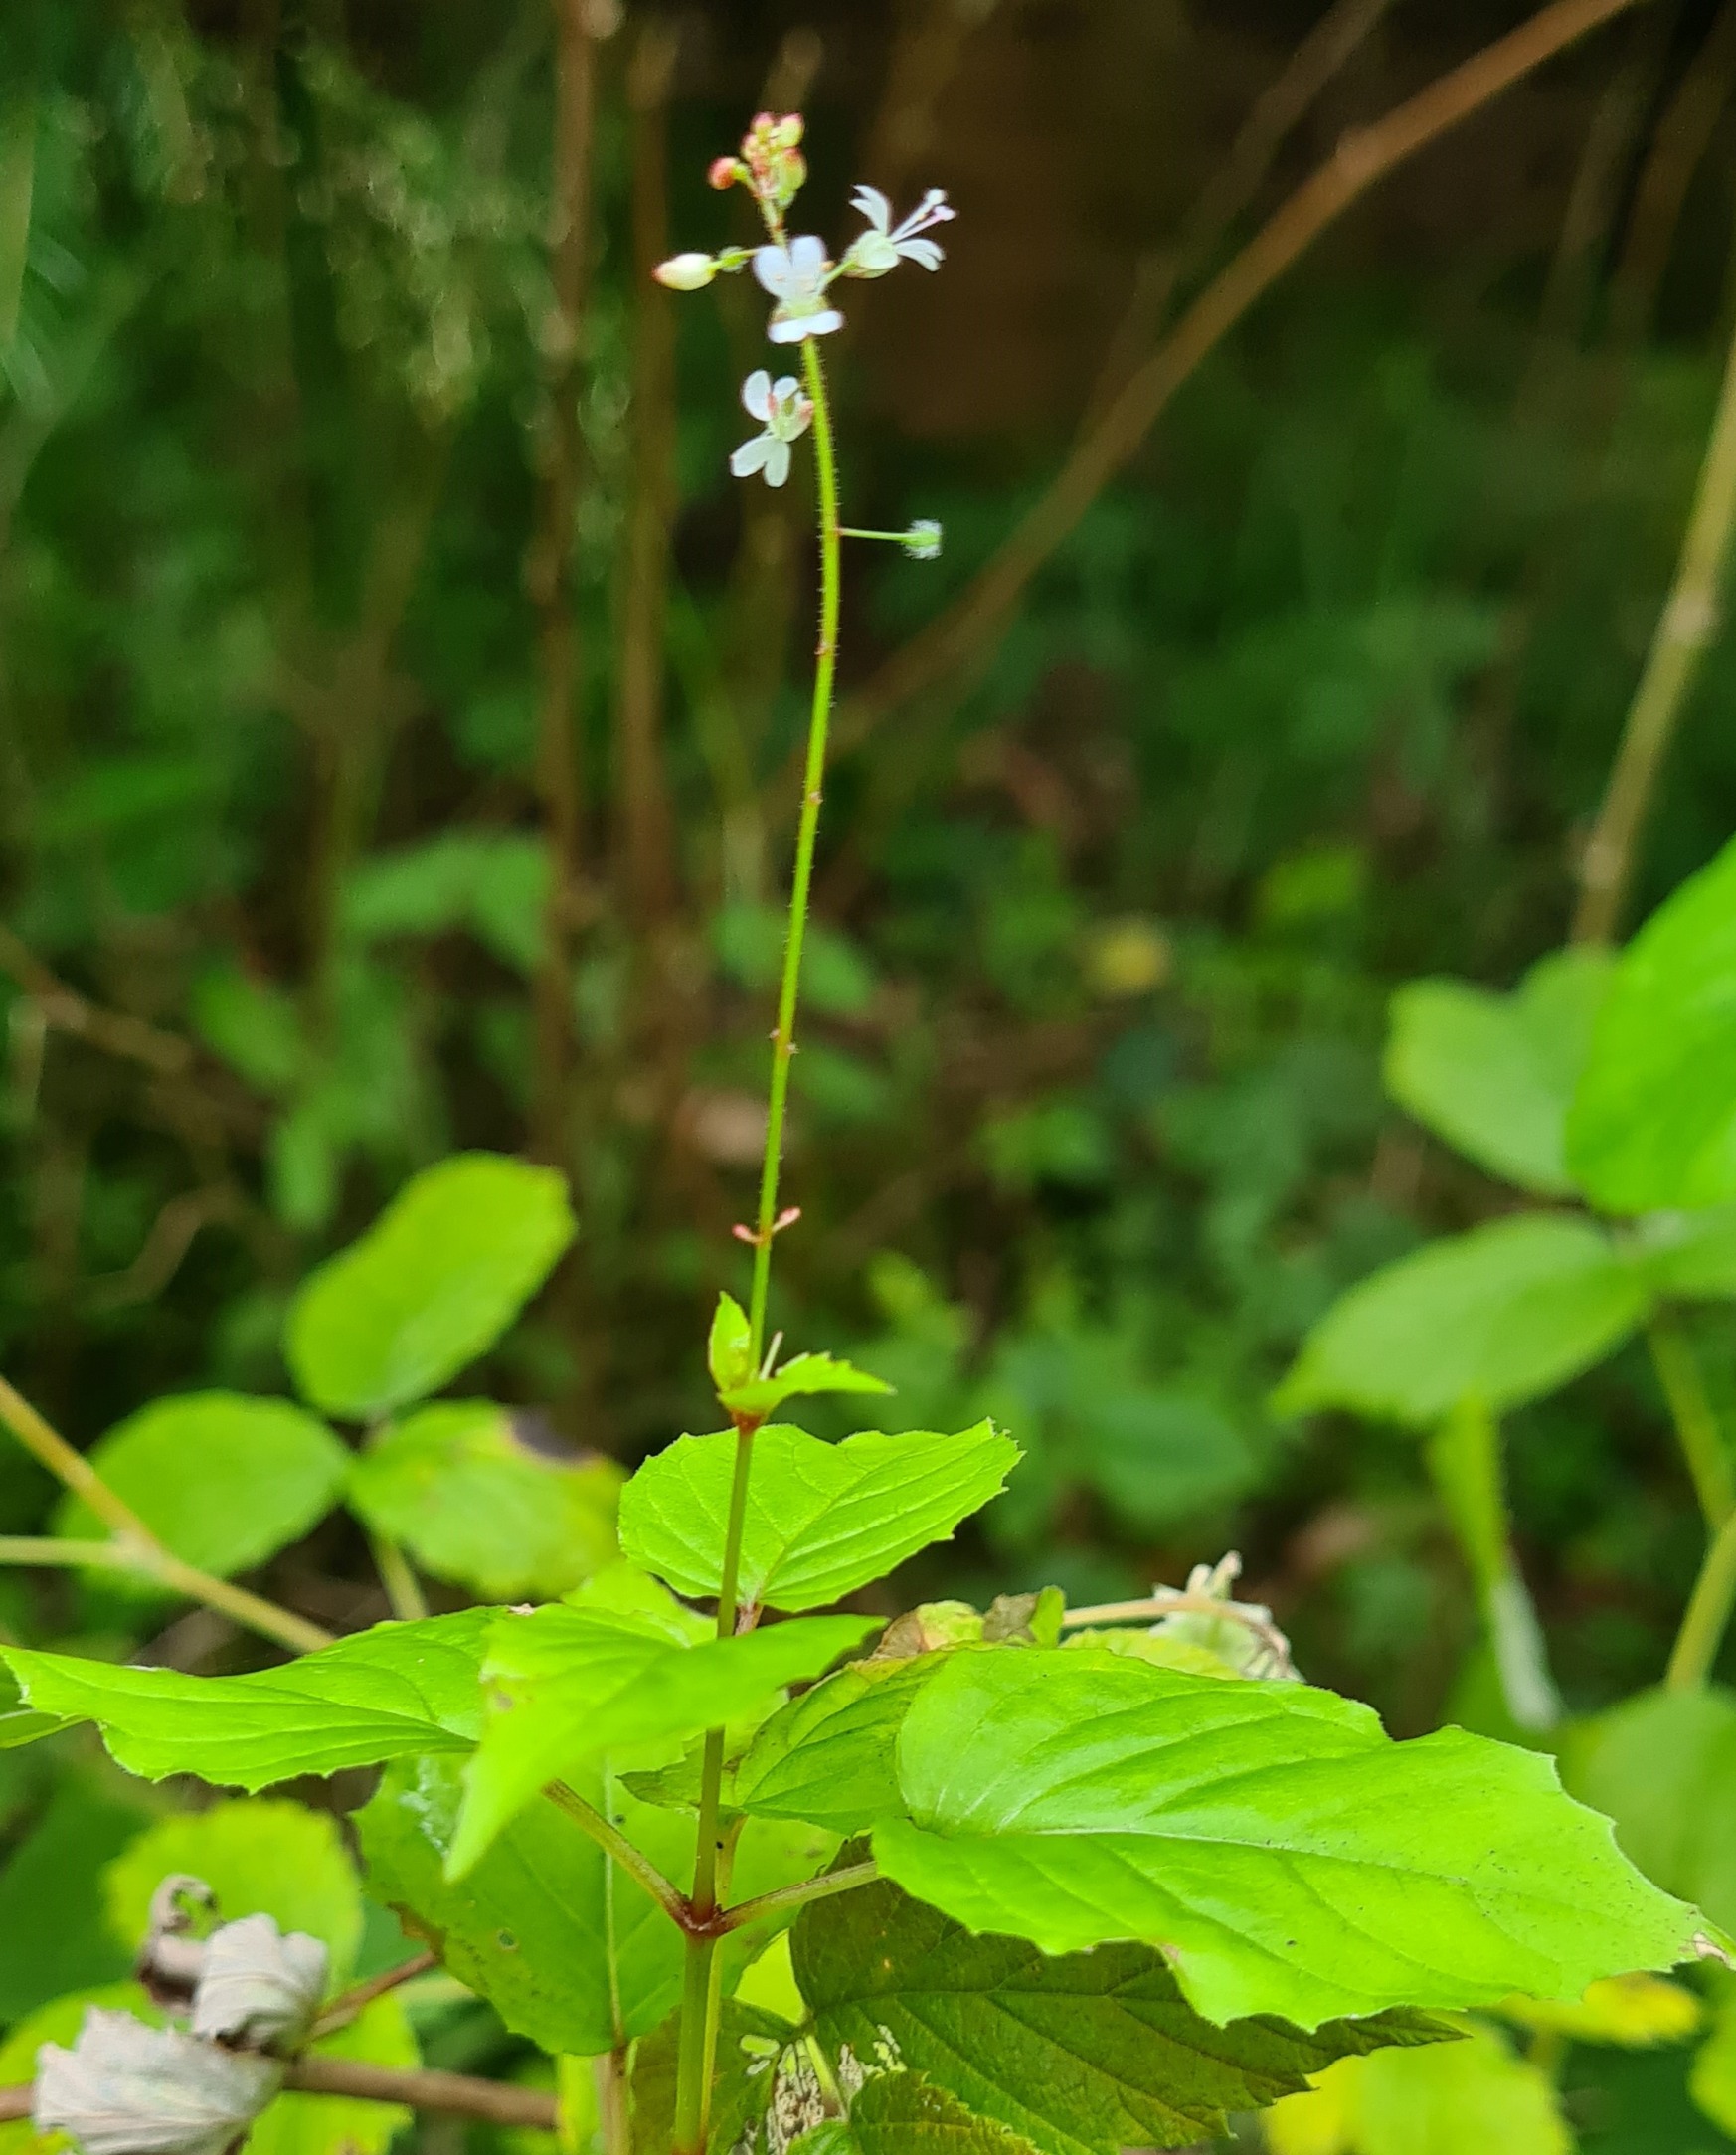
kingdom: Plantae
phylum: Tracheophyta
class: Magnoliopsida
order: Myrtales
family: Onagraceae
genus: Circaea
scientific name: Circaea alpina
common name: Liden steffensurt
